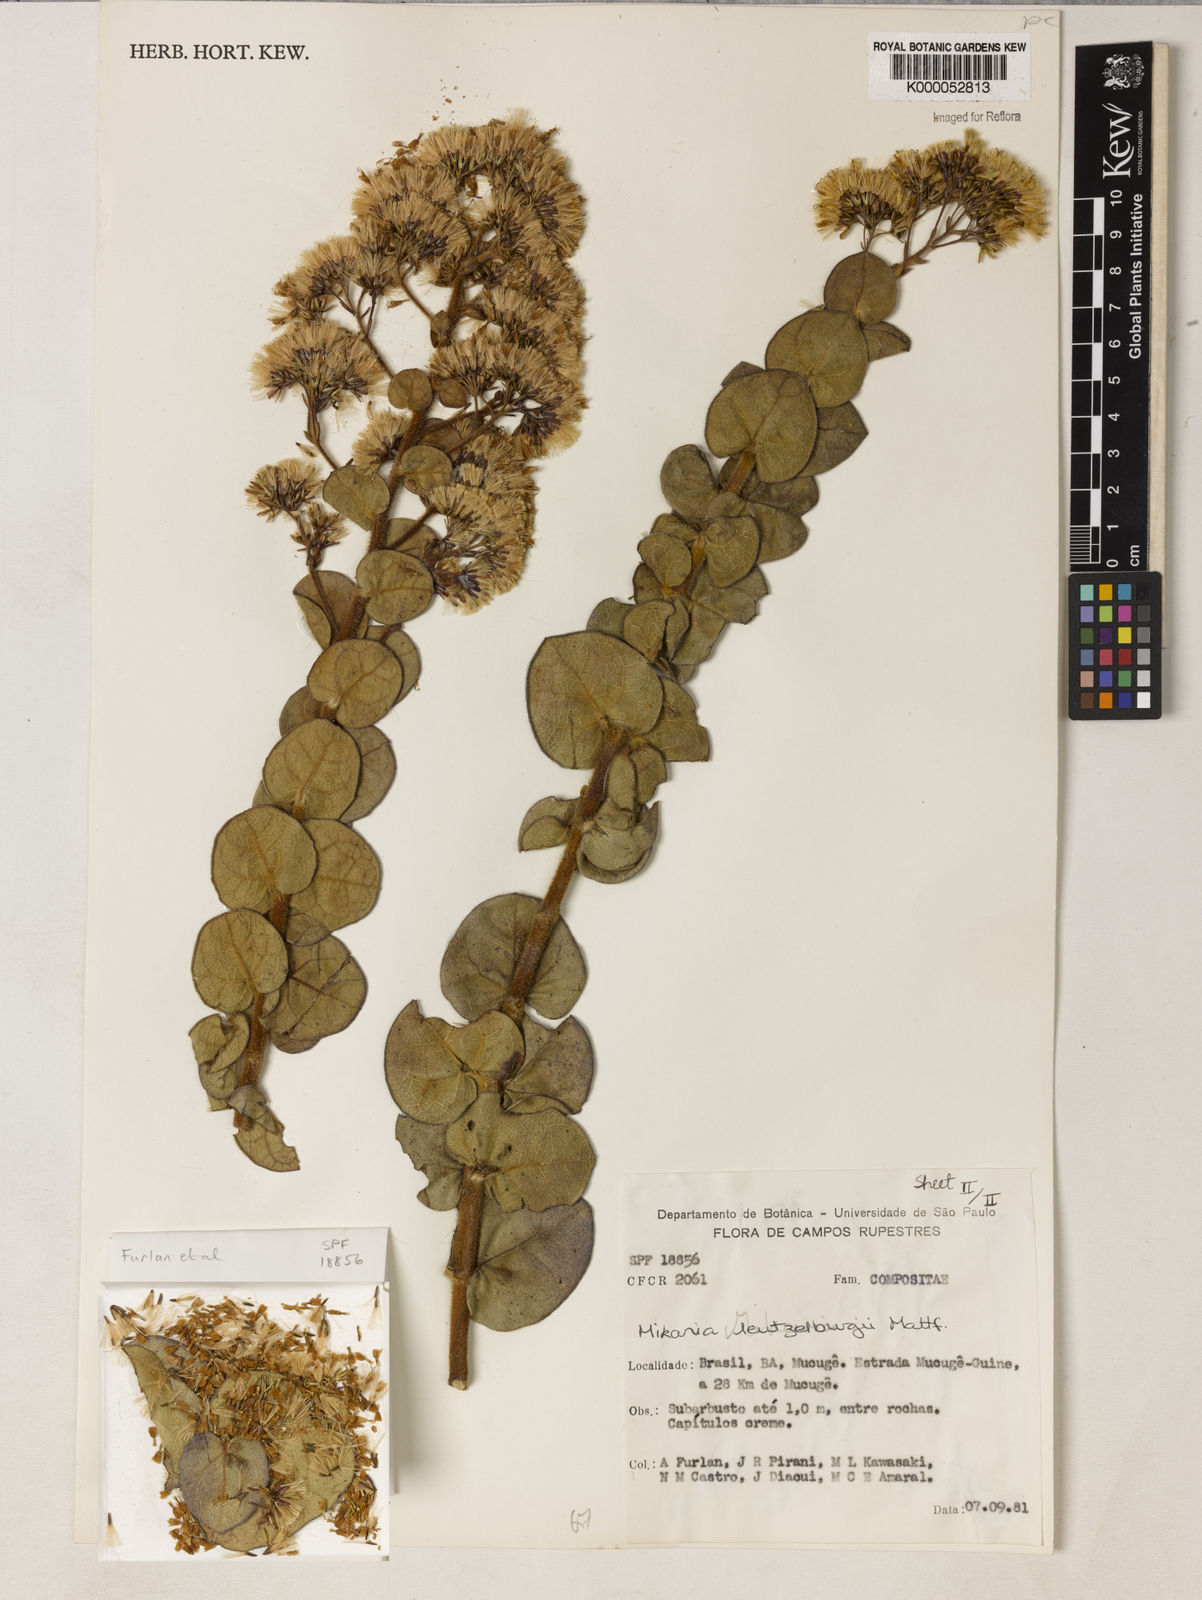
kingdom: Plantae
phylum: Tracheophyta
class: Magnoliopsida
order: Asterales
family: Asteraceae
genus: Mikania
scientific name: Mikania luetzelburgii
